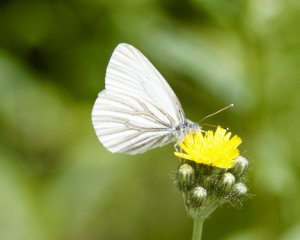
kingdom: Animalia
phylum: Arthropoda
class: Insecta
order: Lepidoptera
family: Pieridae
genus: Pieris
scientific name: Pieris oleracea
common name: Mustard White
